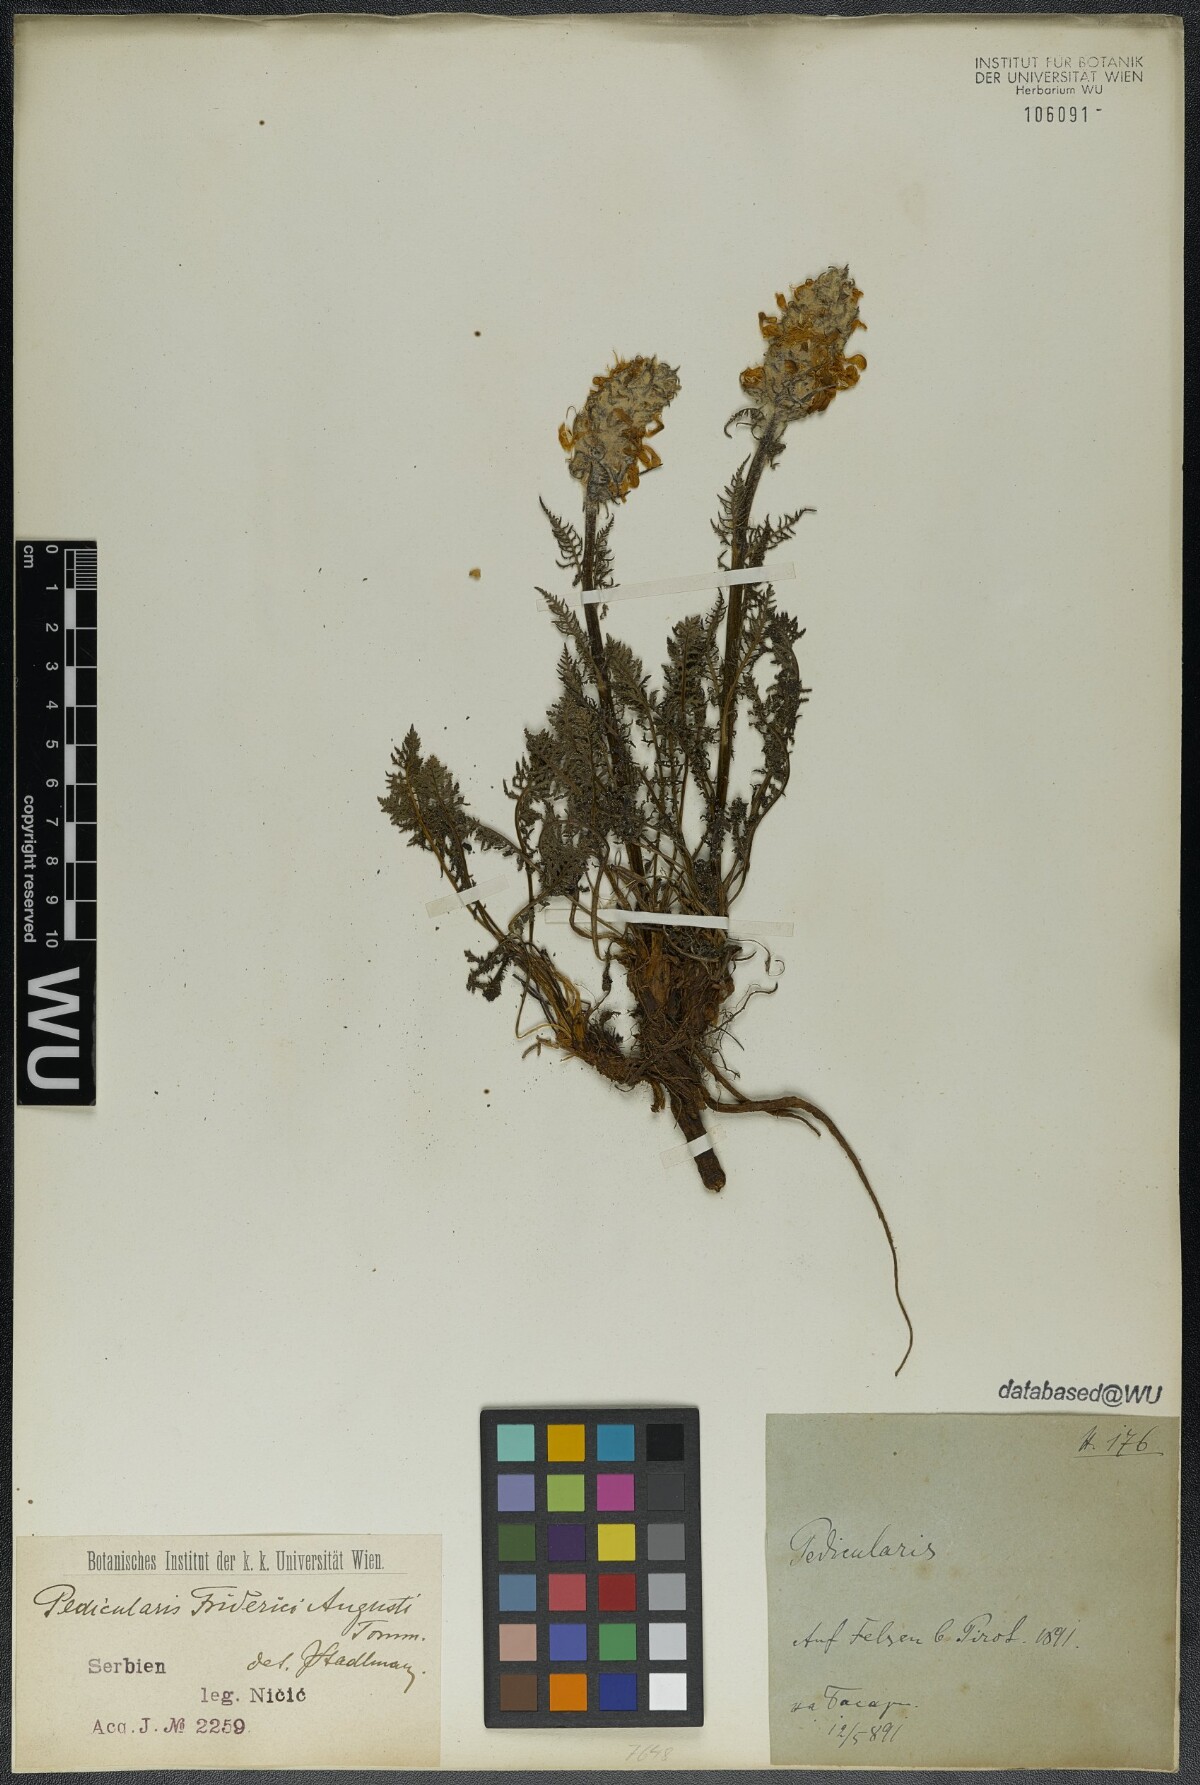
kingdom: Plantae
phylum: Tracheophyta
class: Magnoliopsida
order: Lamiales
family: Orobanchaceae
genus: Pedicularis
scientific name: Pedicularis friderici-augusti
